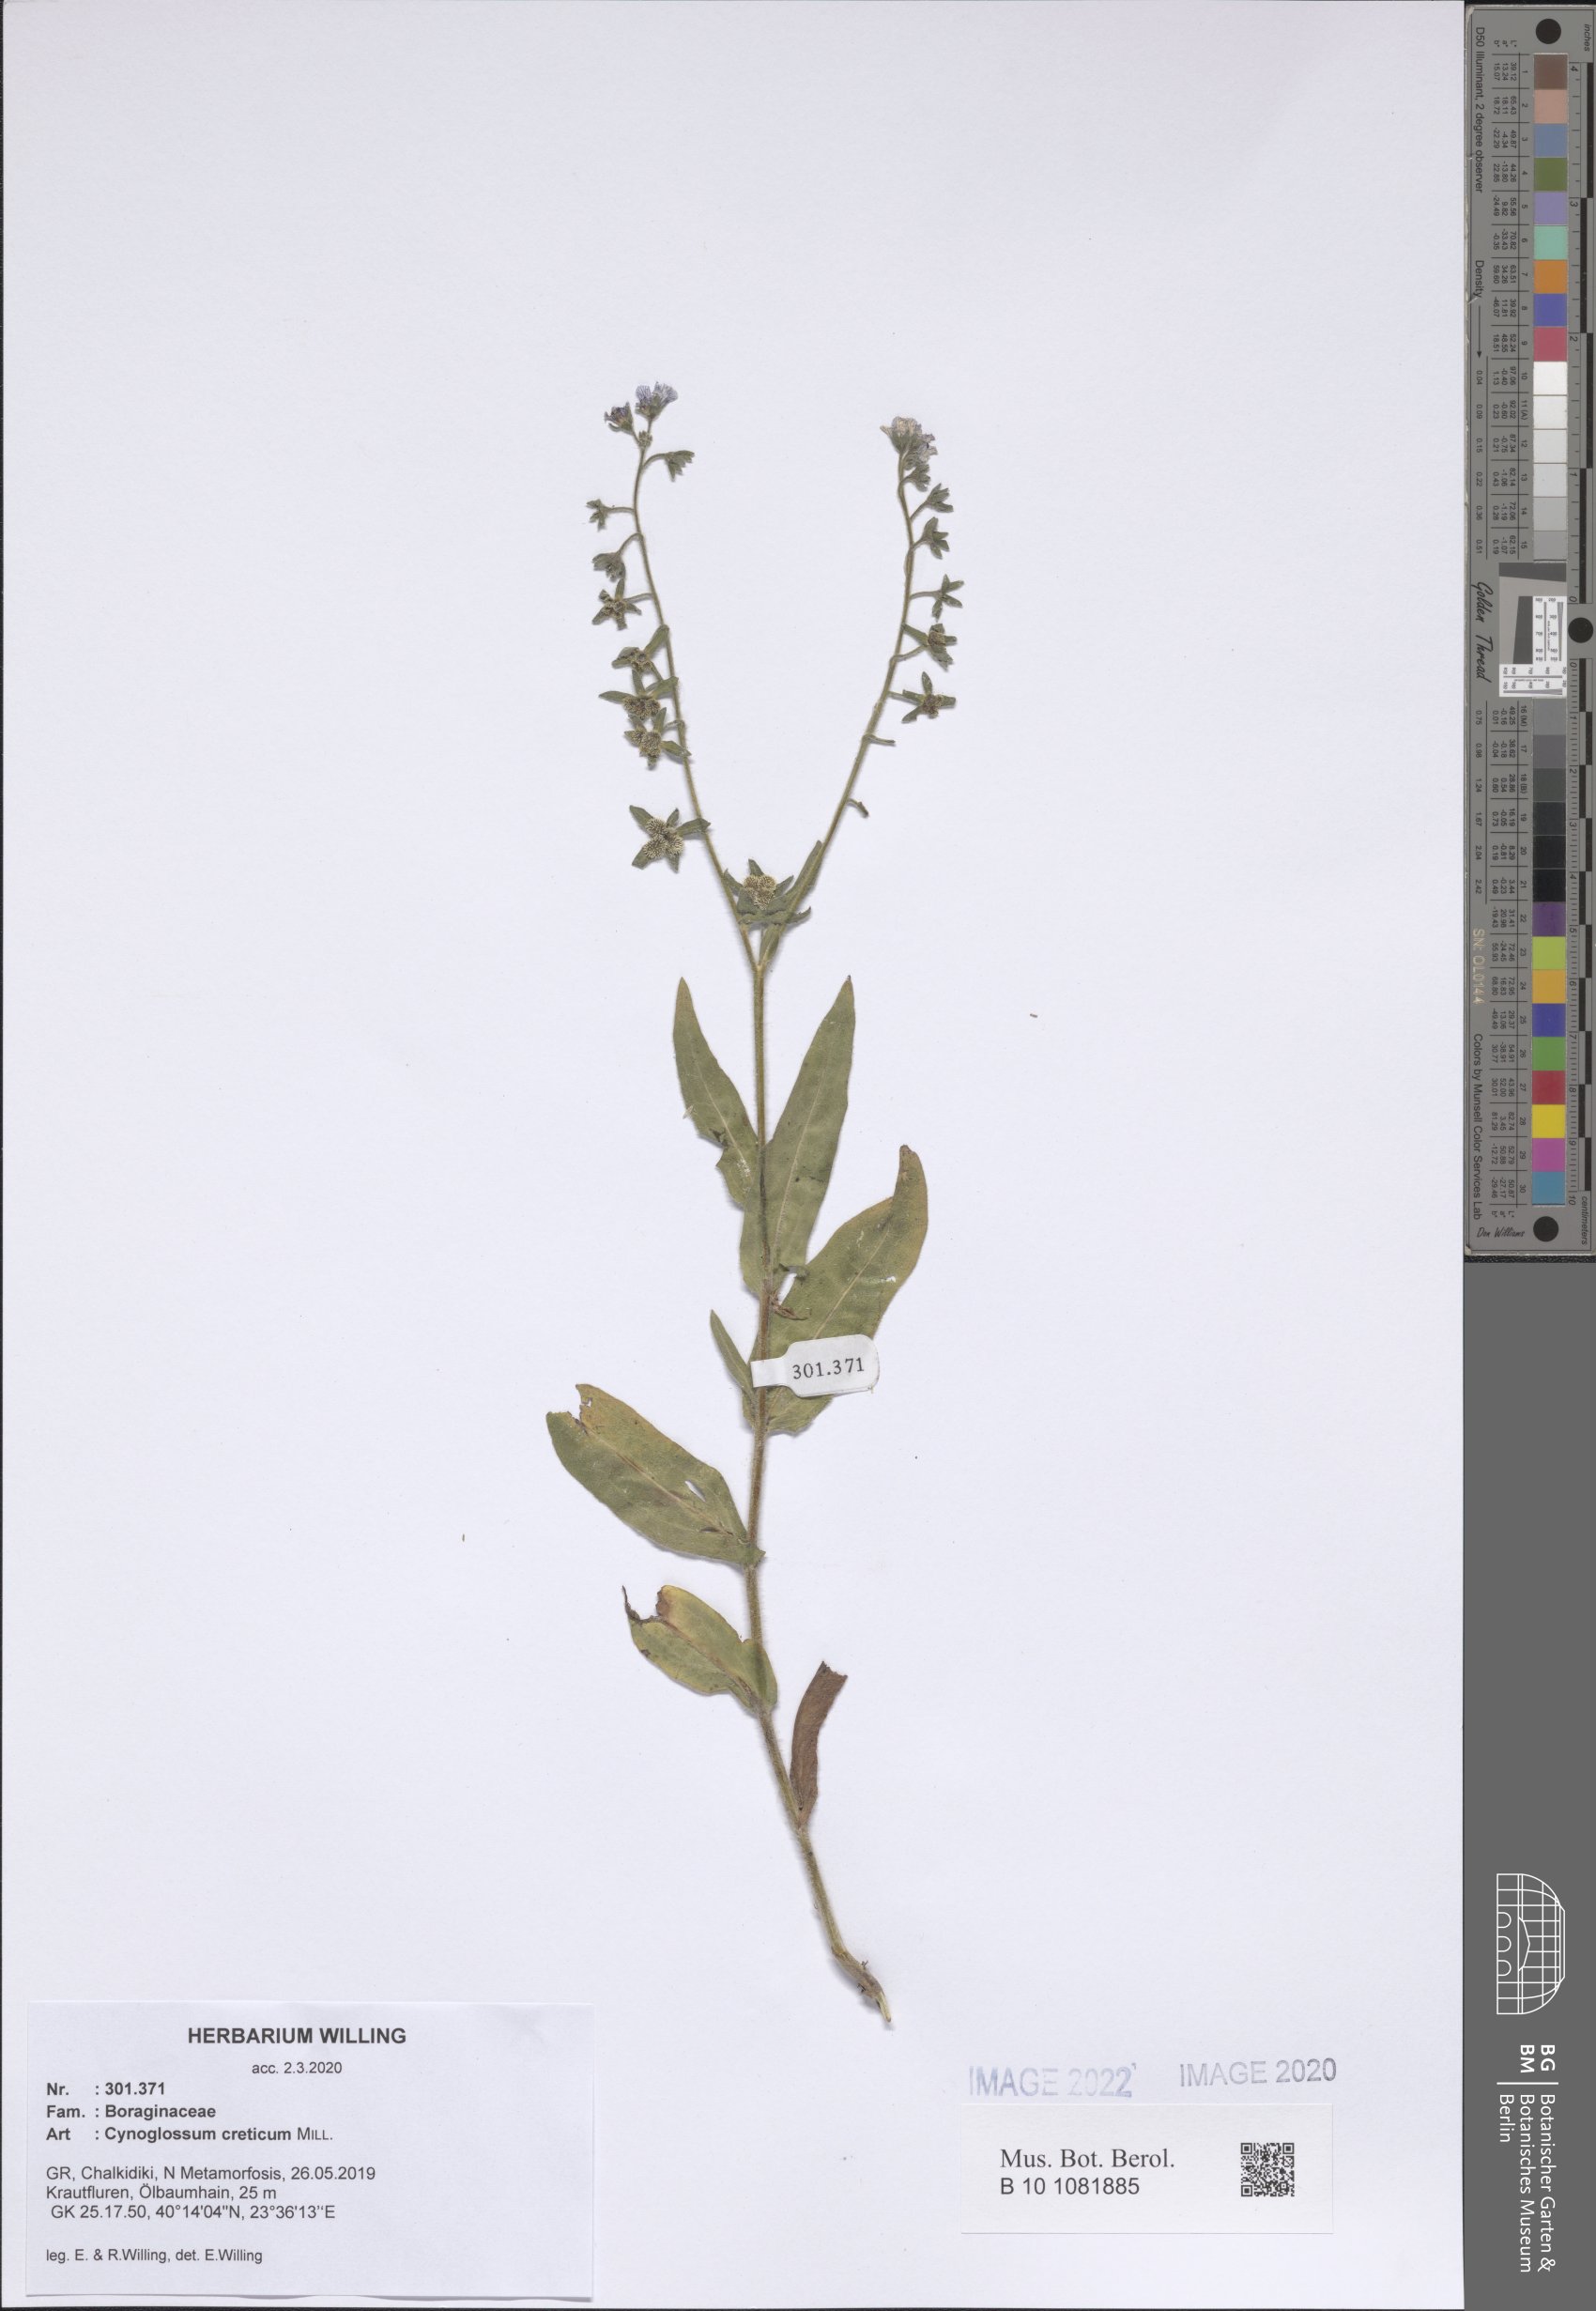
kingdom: Plantae
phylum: Tracheophyta
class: Magnoliopsida
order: Boraginales
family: Boraginaceae
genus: Cynoglossum
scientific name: Cynoglossum creticum
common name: Blue hound's tongue
